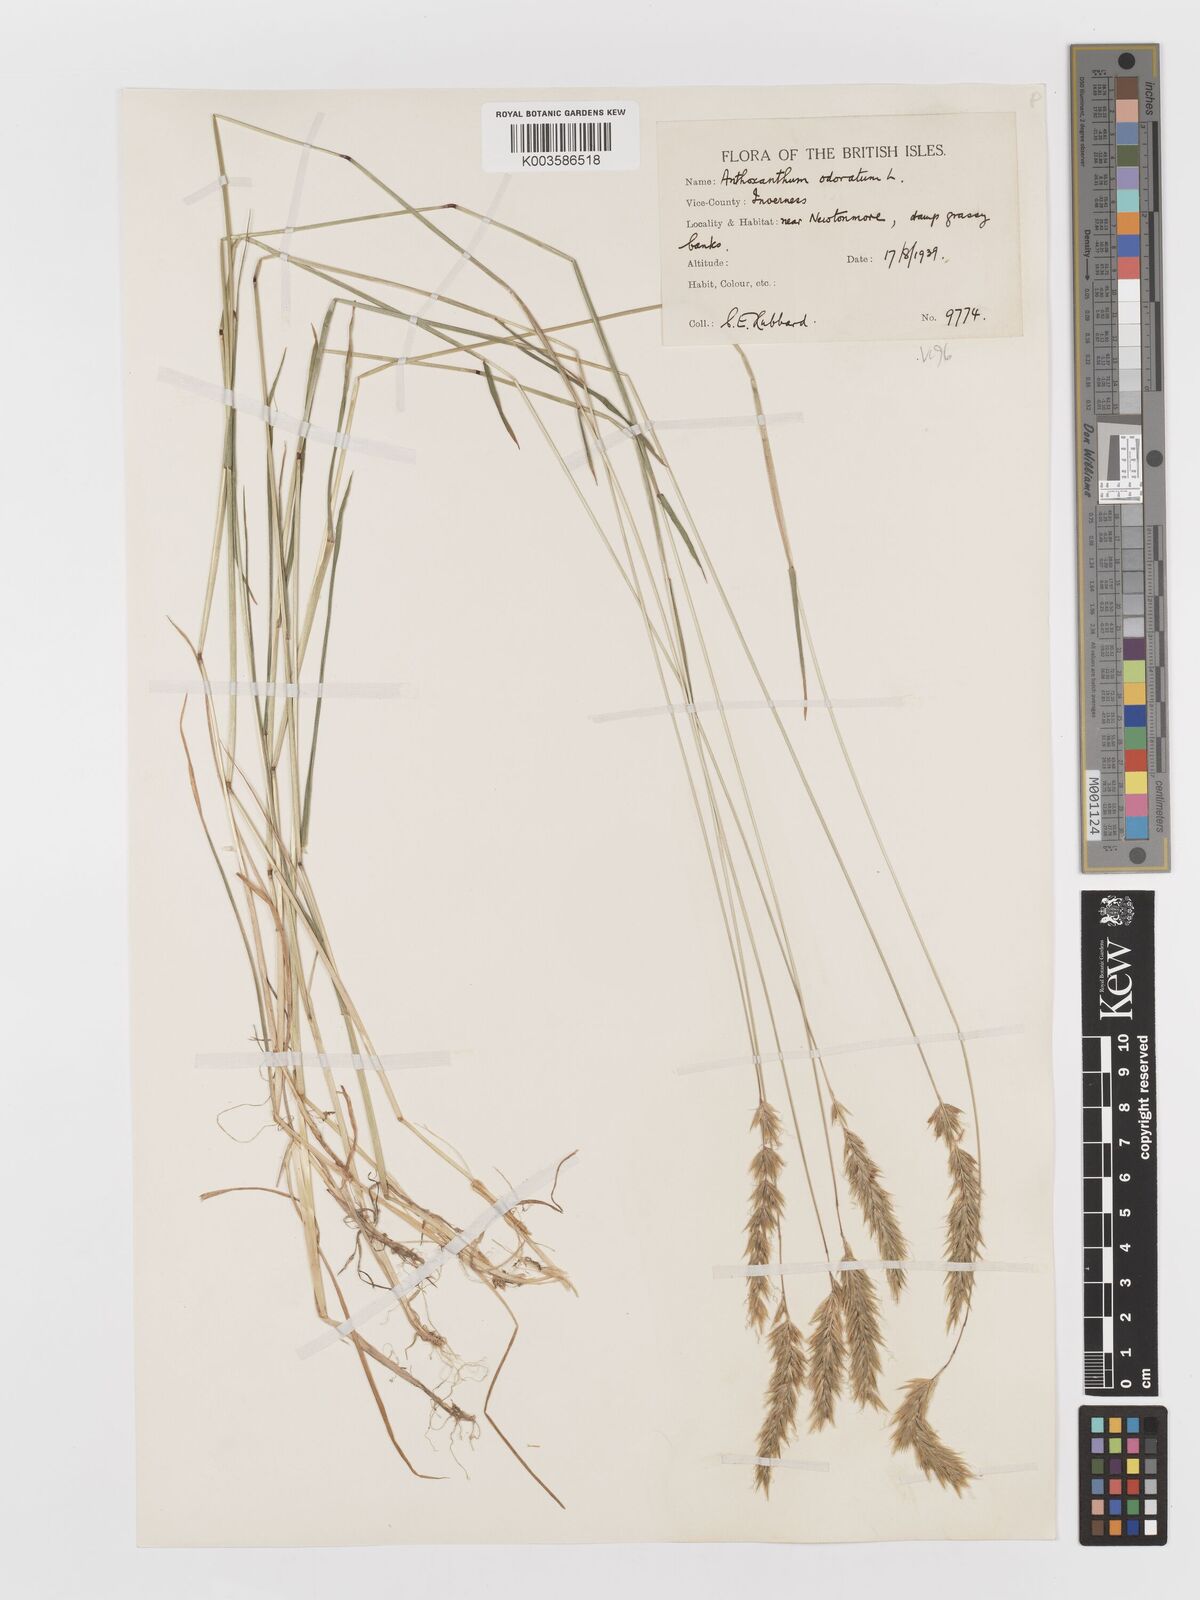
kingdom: Plantae
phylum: Tracheophyta
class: Liliopsida
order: Poales
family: Poaceae
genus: Anthoxanthum
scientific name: Anthoxanthum odoratum
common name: Sweet vernalgrass
